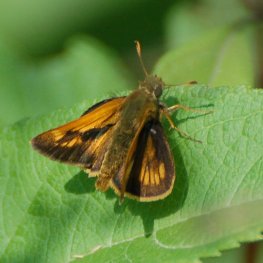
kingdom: Animalia
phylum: Arthropoda
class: Insecta
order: Lepidoptera
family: Hesperiidae
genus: Polites
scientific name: Polites
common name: Long Dash Skipper
